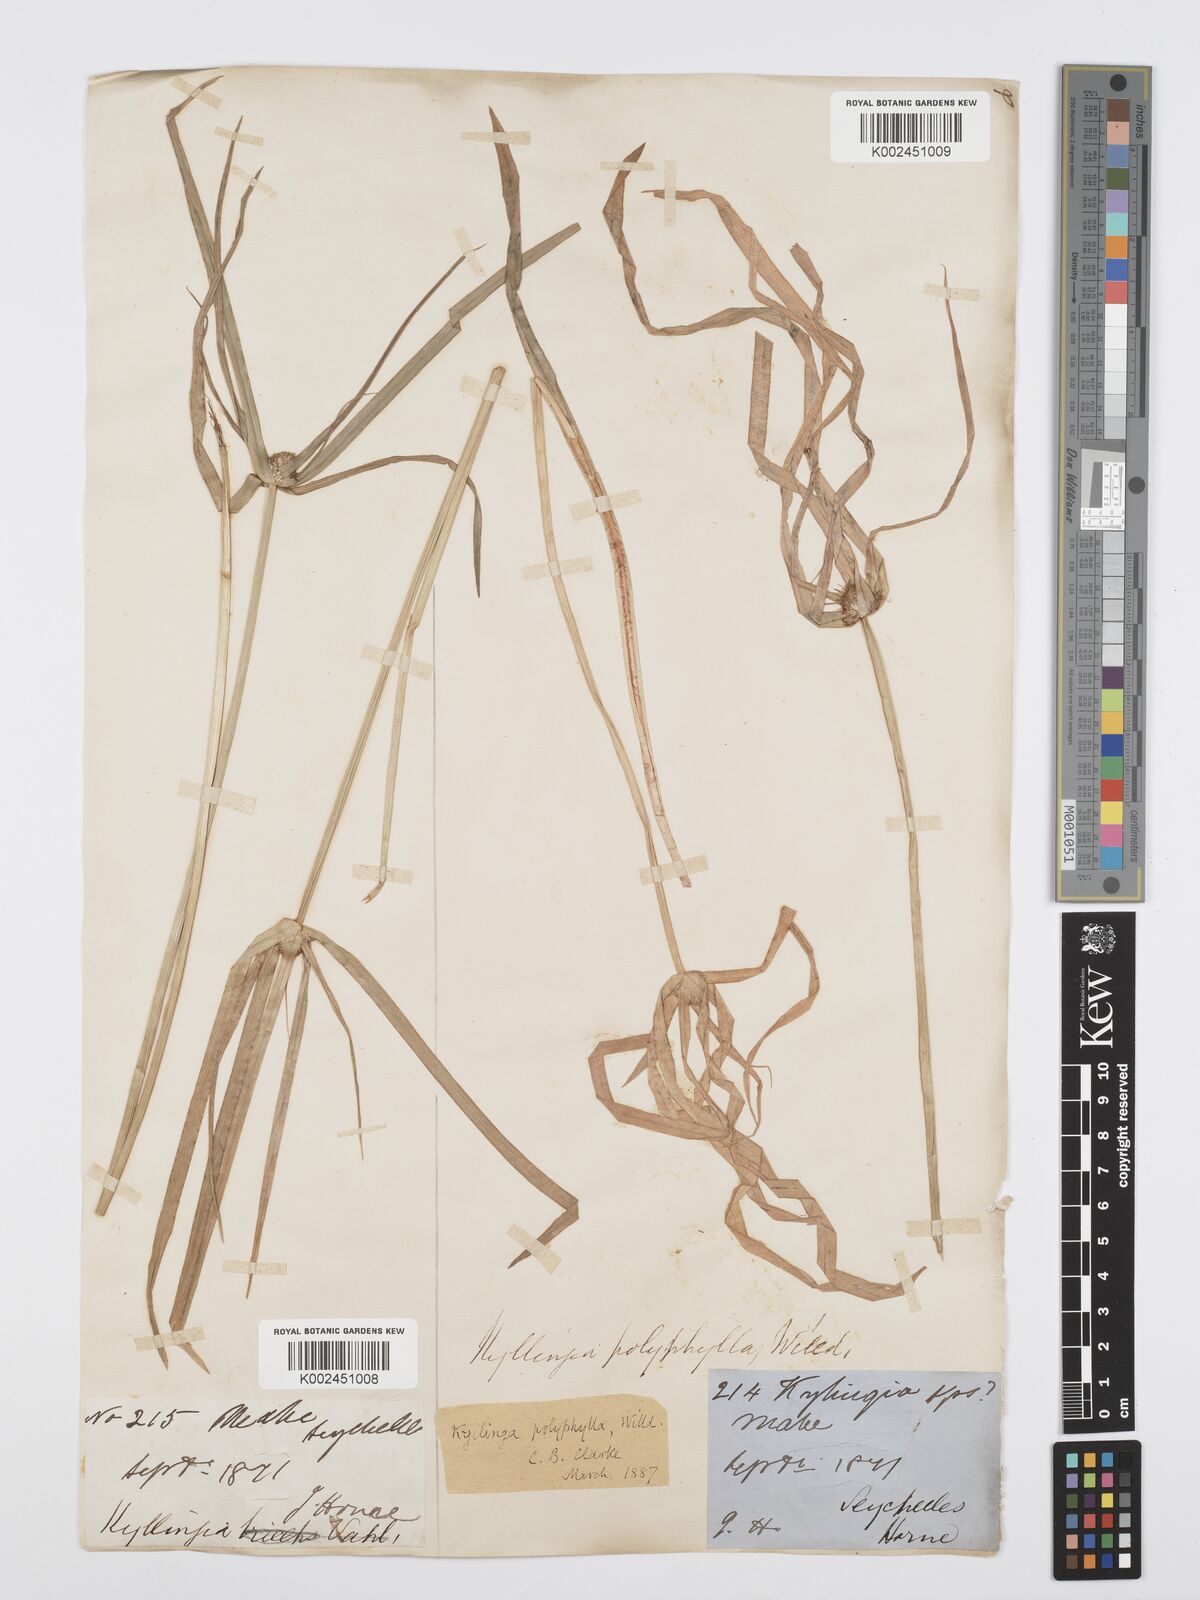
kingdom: Plantae
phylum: Tracheophyta
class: Liliopsida
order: Poales
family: Cyperaceae
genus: Cyperus
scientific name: Cyperus bulbosus
